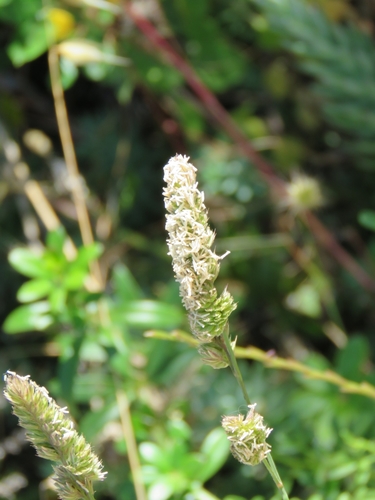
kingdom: Plantae
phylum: Tracheophyta
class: Liliopsida
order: Poales
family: Poaceae
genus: Dactylis
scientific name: Dactylis glomerata
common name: Orchardgrass
